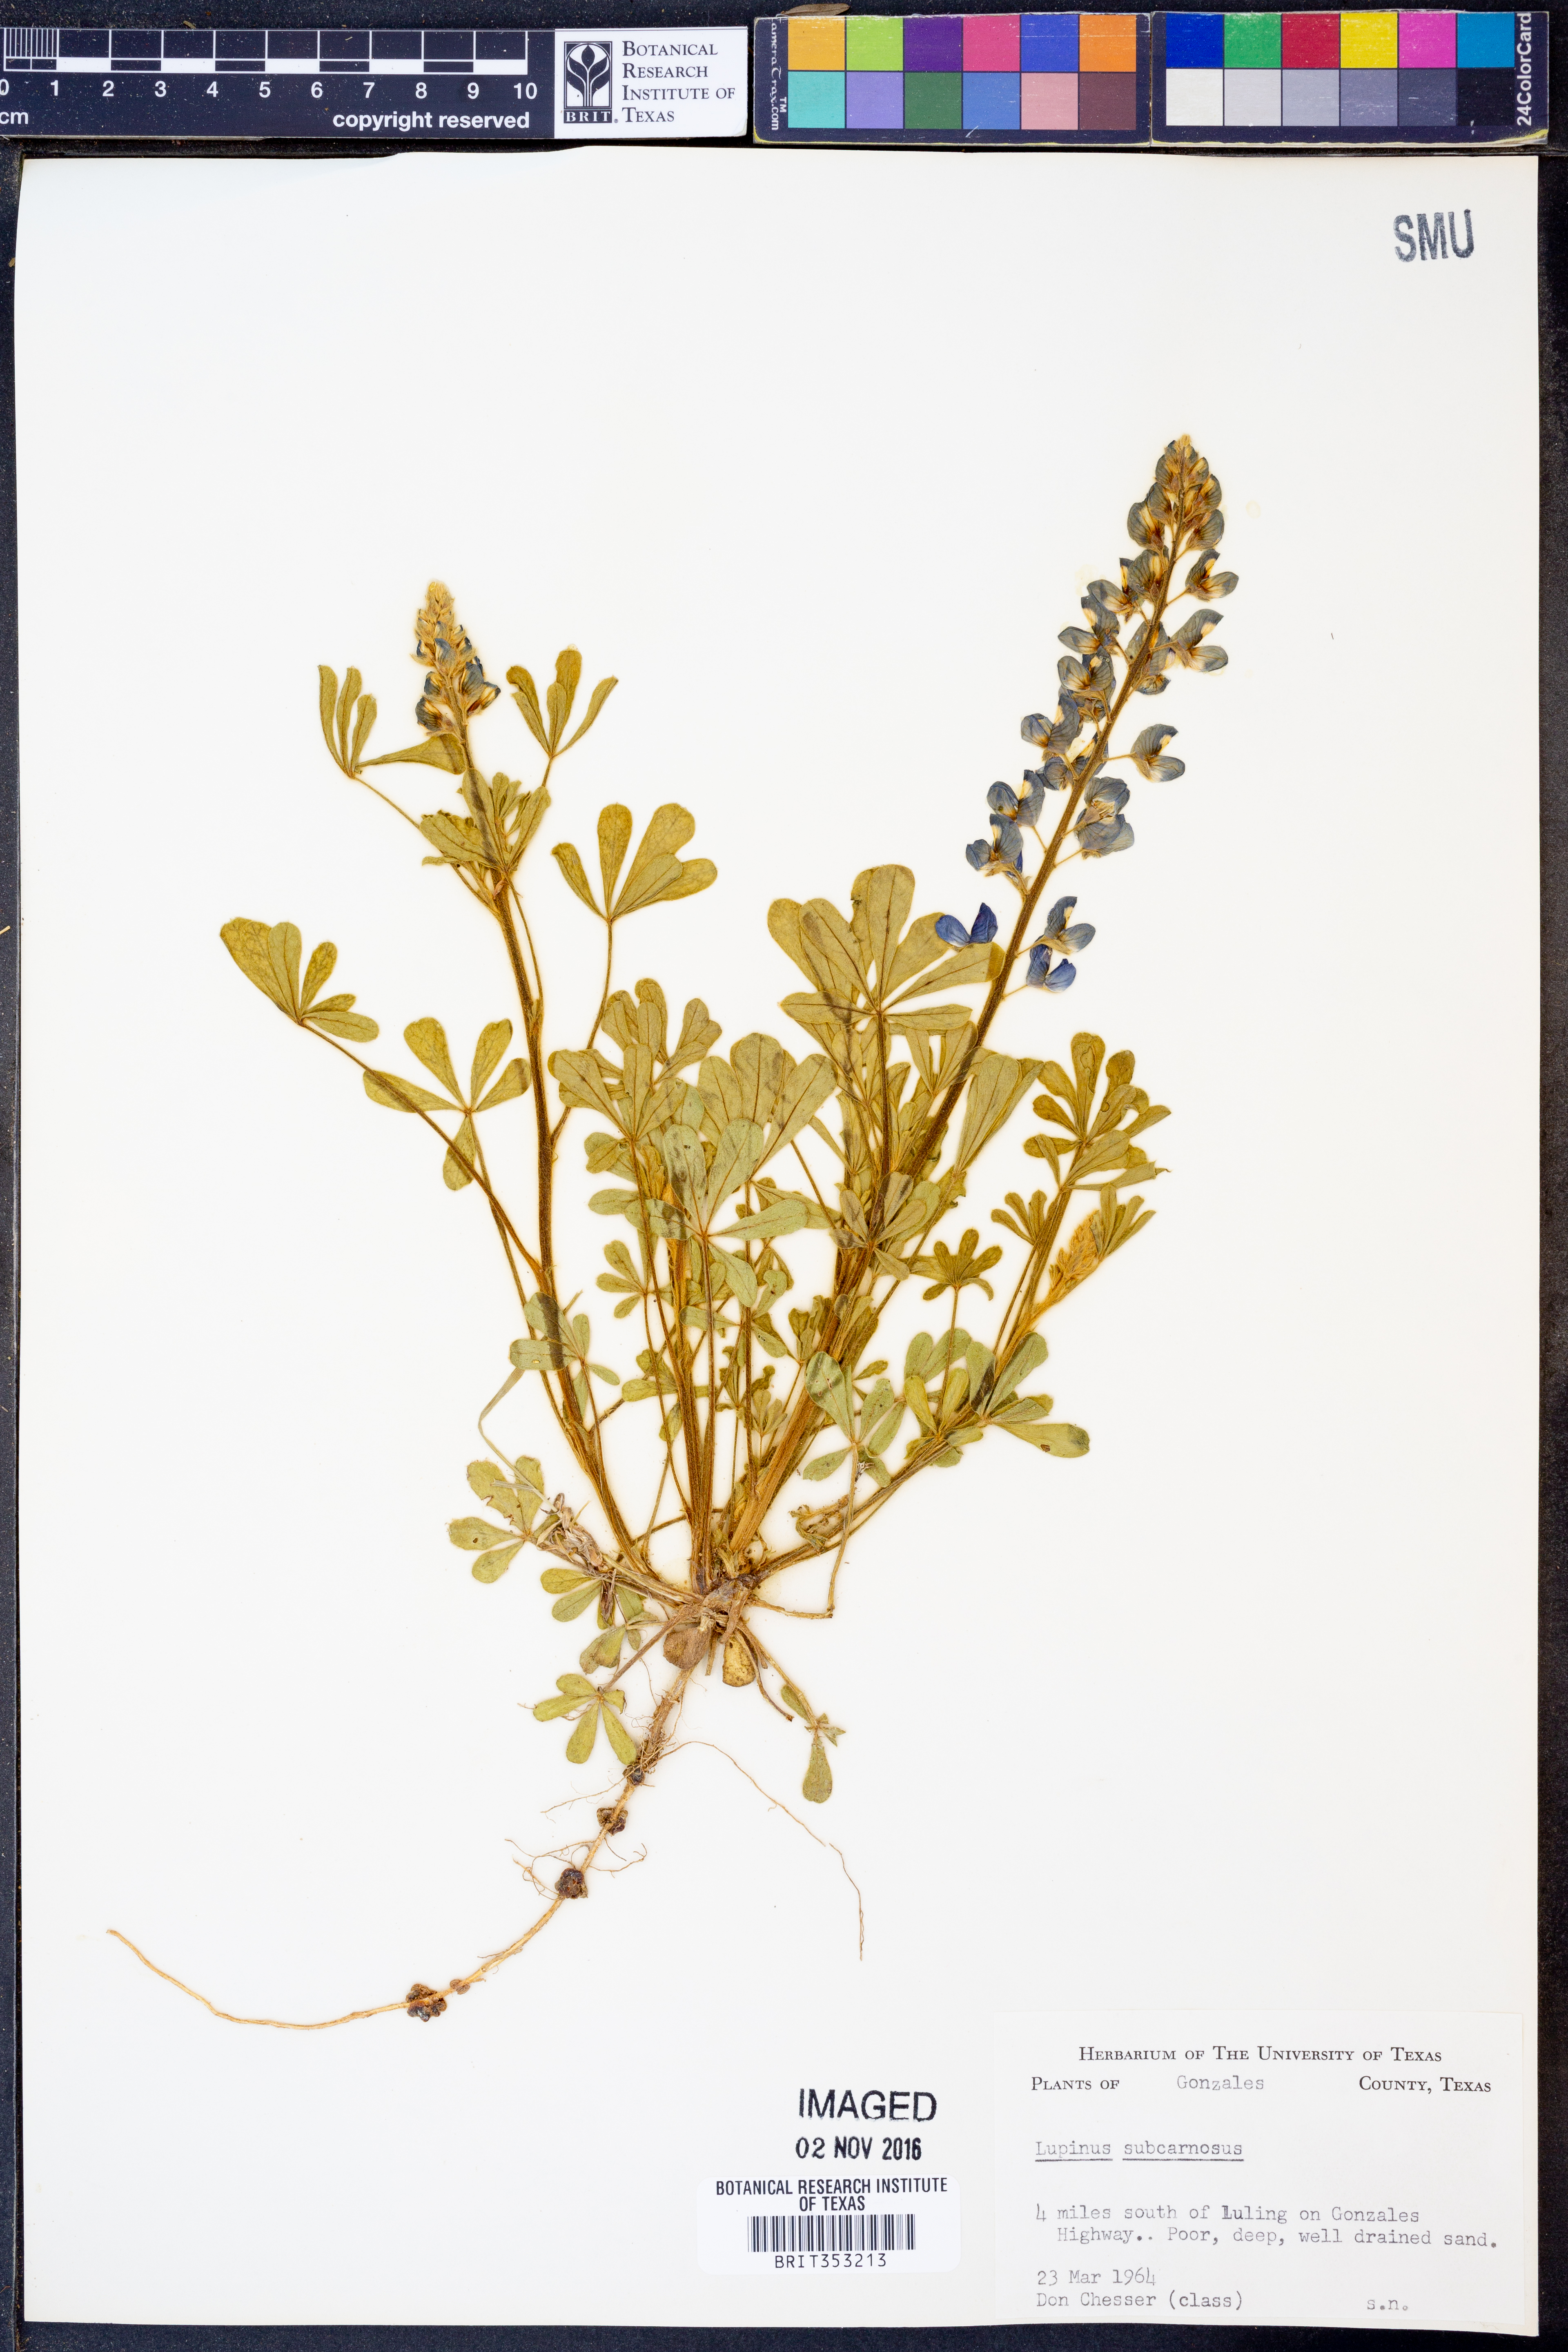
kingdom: Plantae
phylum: Tracheophyta
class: Magnoliopsida
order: Fabales
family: Fabaceae
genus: Lupinus
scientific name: Lupinus subcarnosus
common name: Texas bluebonnet
